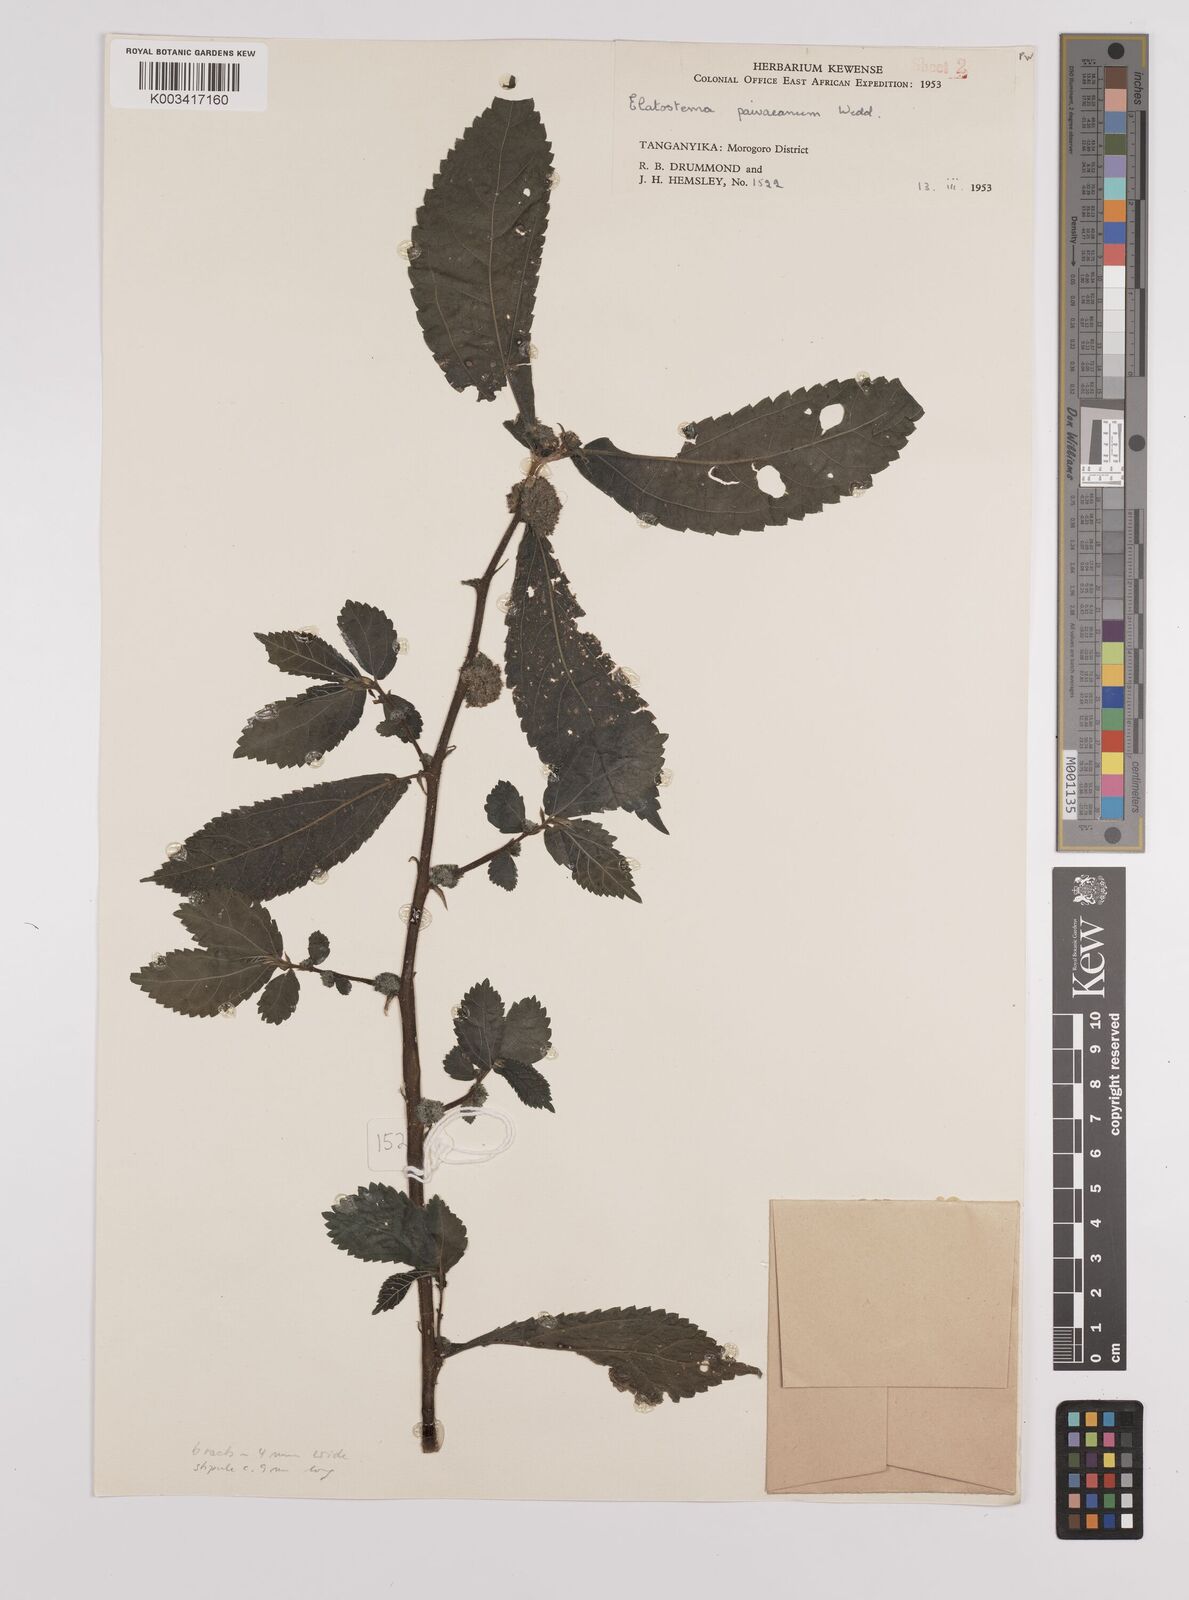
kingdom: Plantae
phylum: Tracheophyta
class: Magnoliopsida
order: Rosales
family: Urticaceae
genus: Elatostema
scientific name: Elatostema paivaeanum
